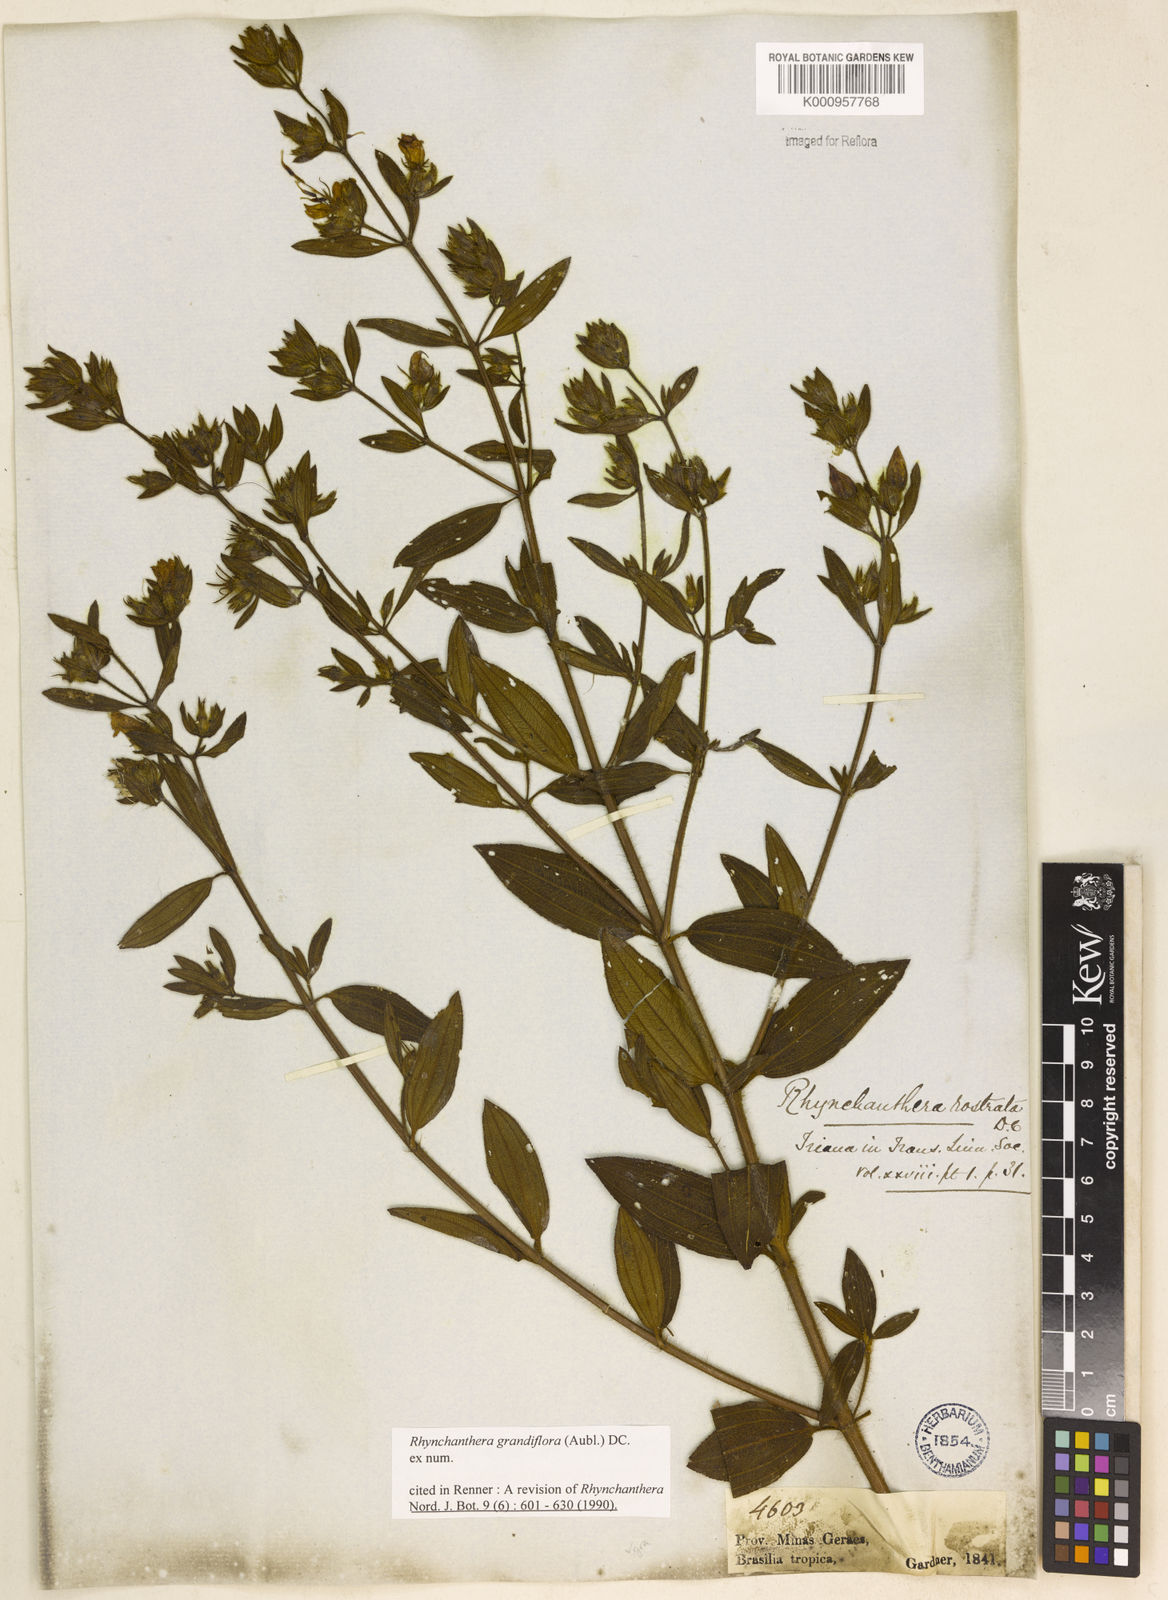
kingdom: Plantae
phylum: Tracheophyta
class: Magnoliopsida
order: Myrtales
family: Melastomataceae
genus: Rhynchanthera
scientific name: Rhynchanthera grandiflora
